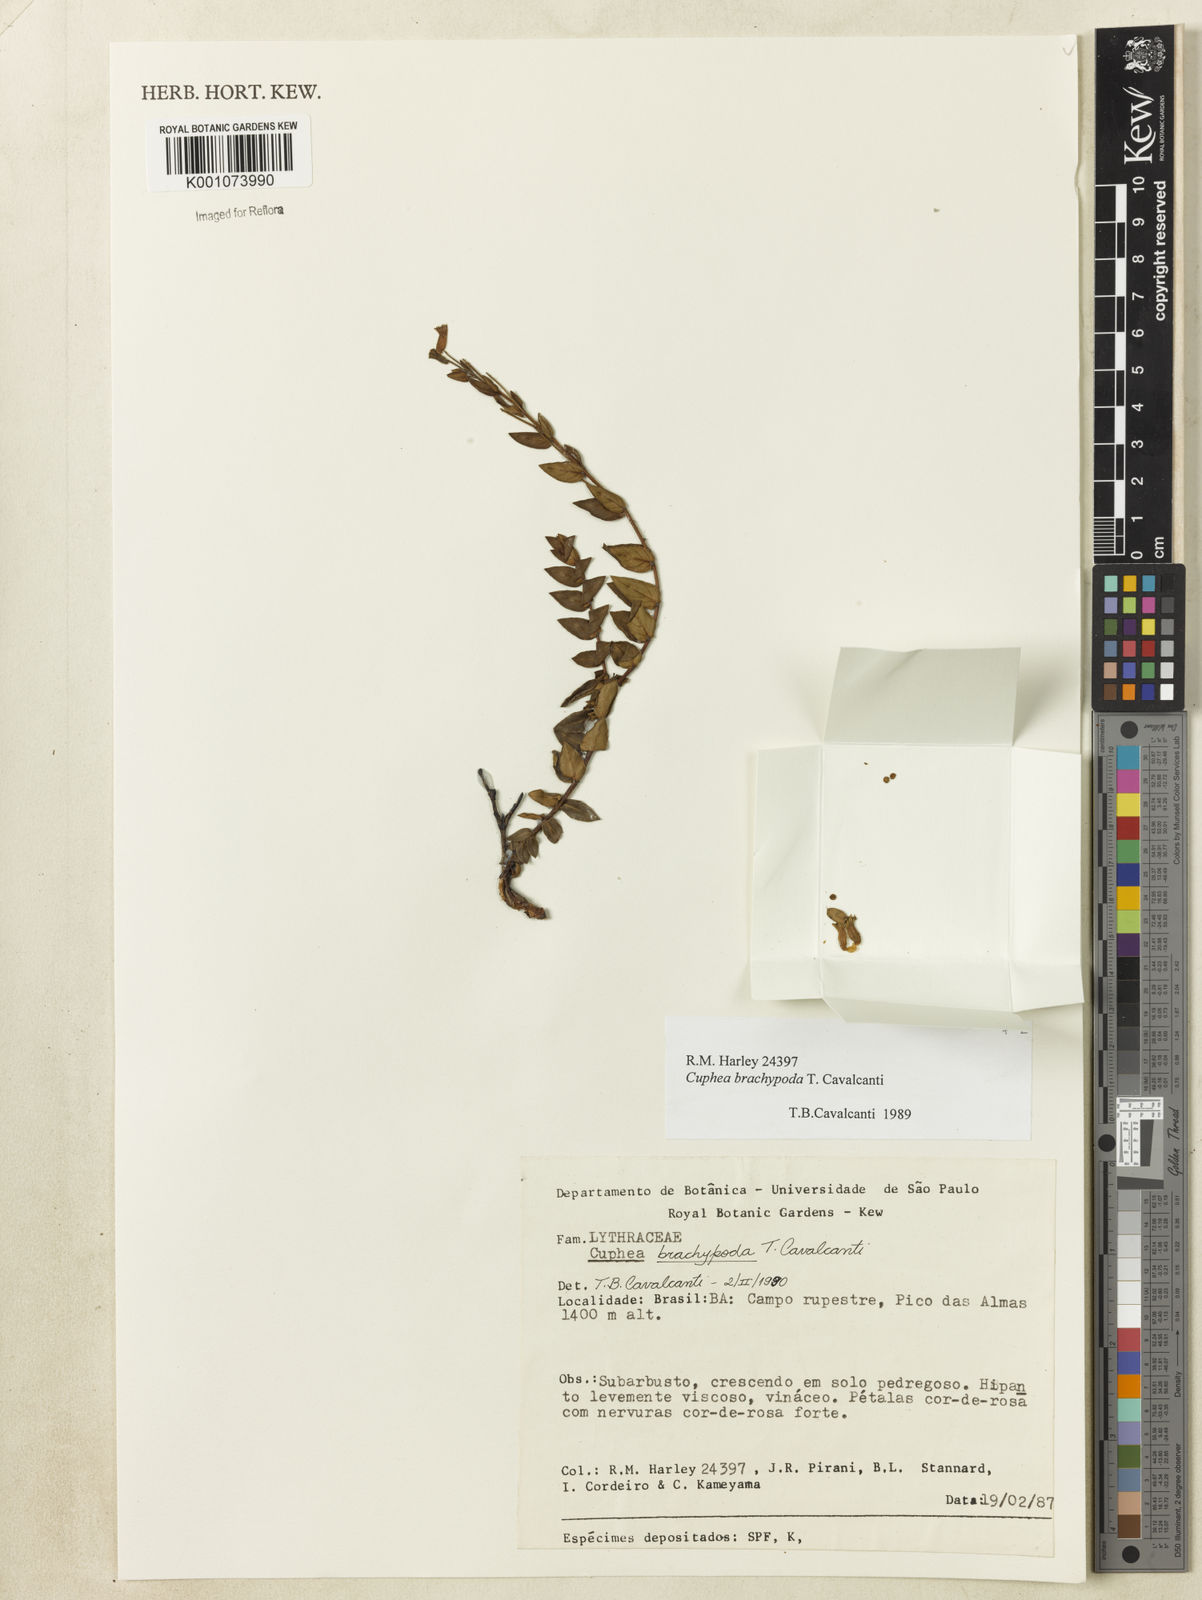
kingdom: Plantae
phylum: Tracheophyta
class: Magnoliopsida
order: Myrtales
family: Lythraceae
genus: Cuphea
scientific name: Cuphea brachypoda
